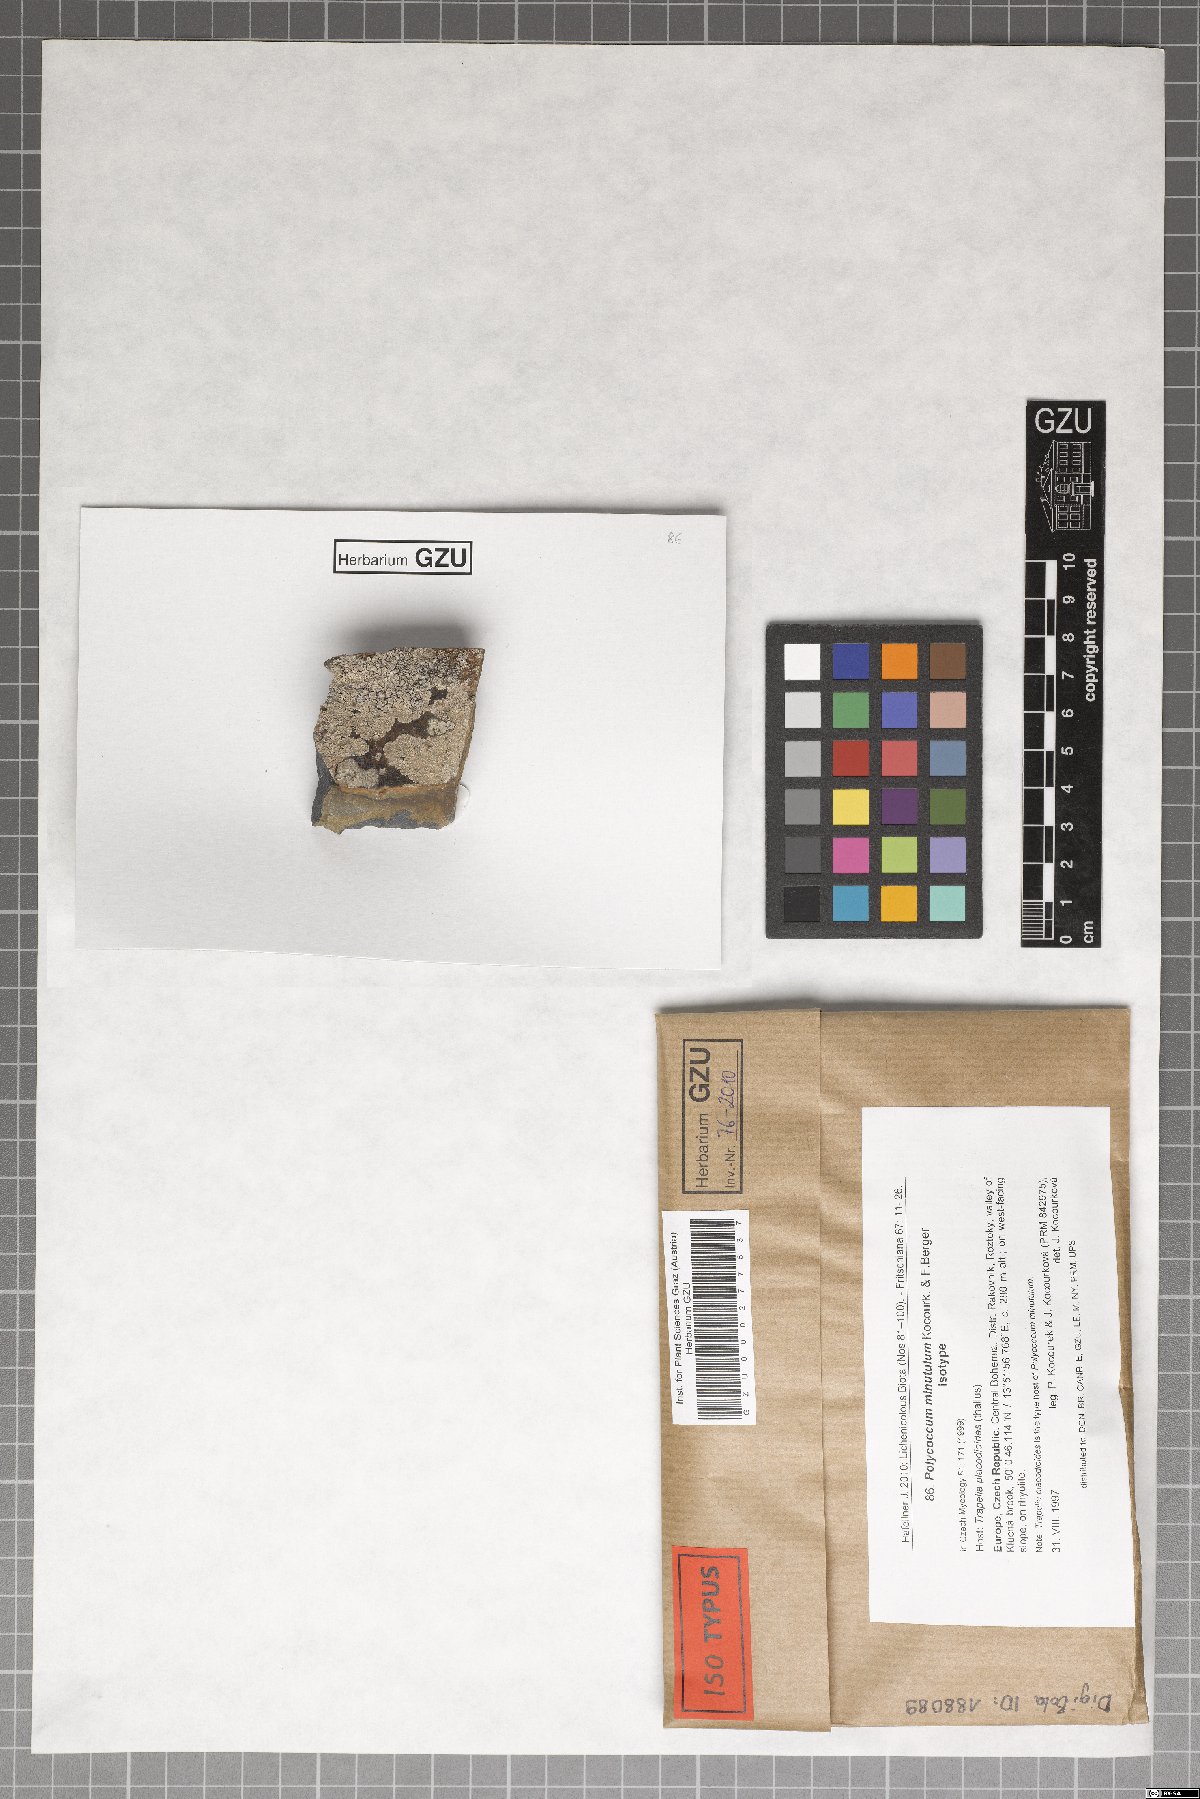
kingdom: Fungi
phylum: Ascomycota
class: Dothideomycetes
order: Pleosporales
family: Dacampiaceae
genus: Polycoccum
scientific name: Polycoccum minutulum
